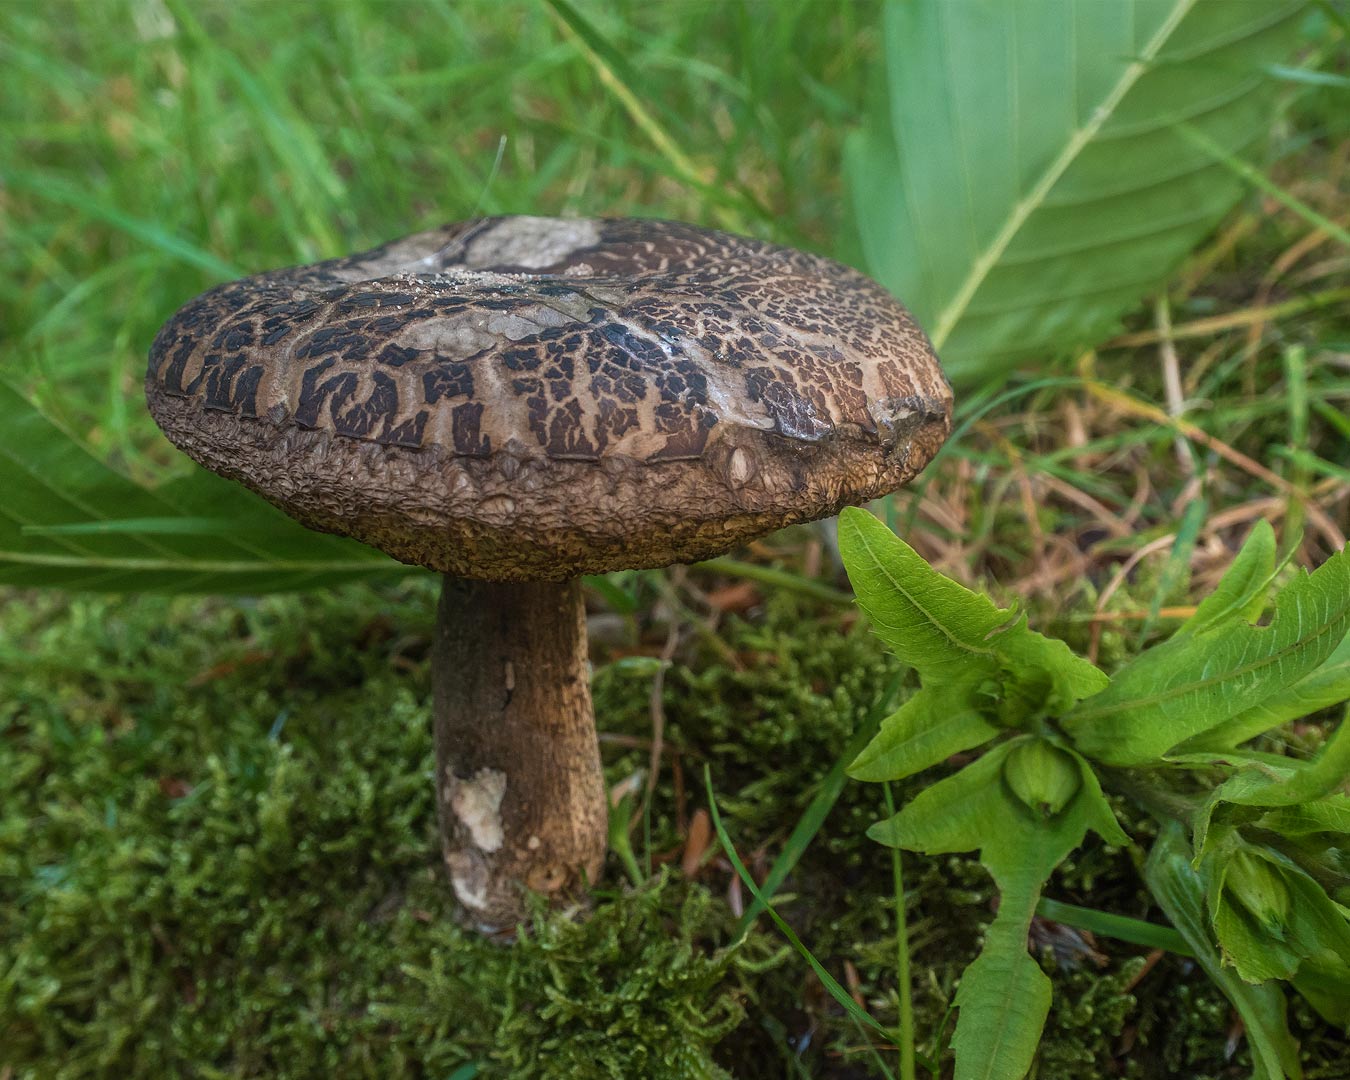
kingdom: Fungi
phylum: Basidiomycota
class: Agaricomycetes
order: Boletales
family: Boletaceae
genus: Leccinellum
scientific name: Leccinellum pseudoscabrum
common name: avnbøg-skælrørhat
